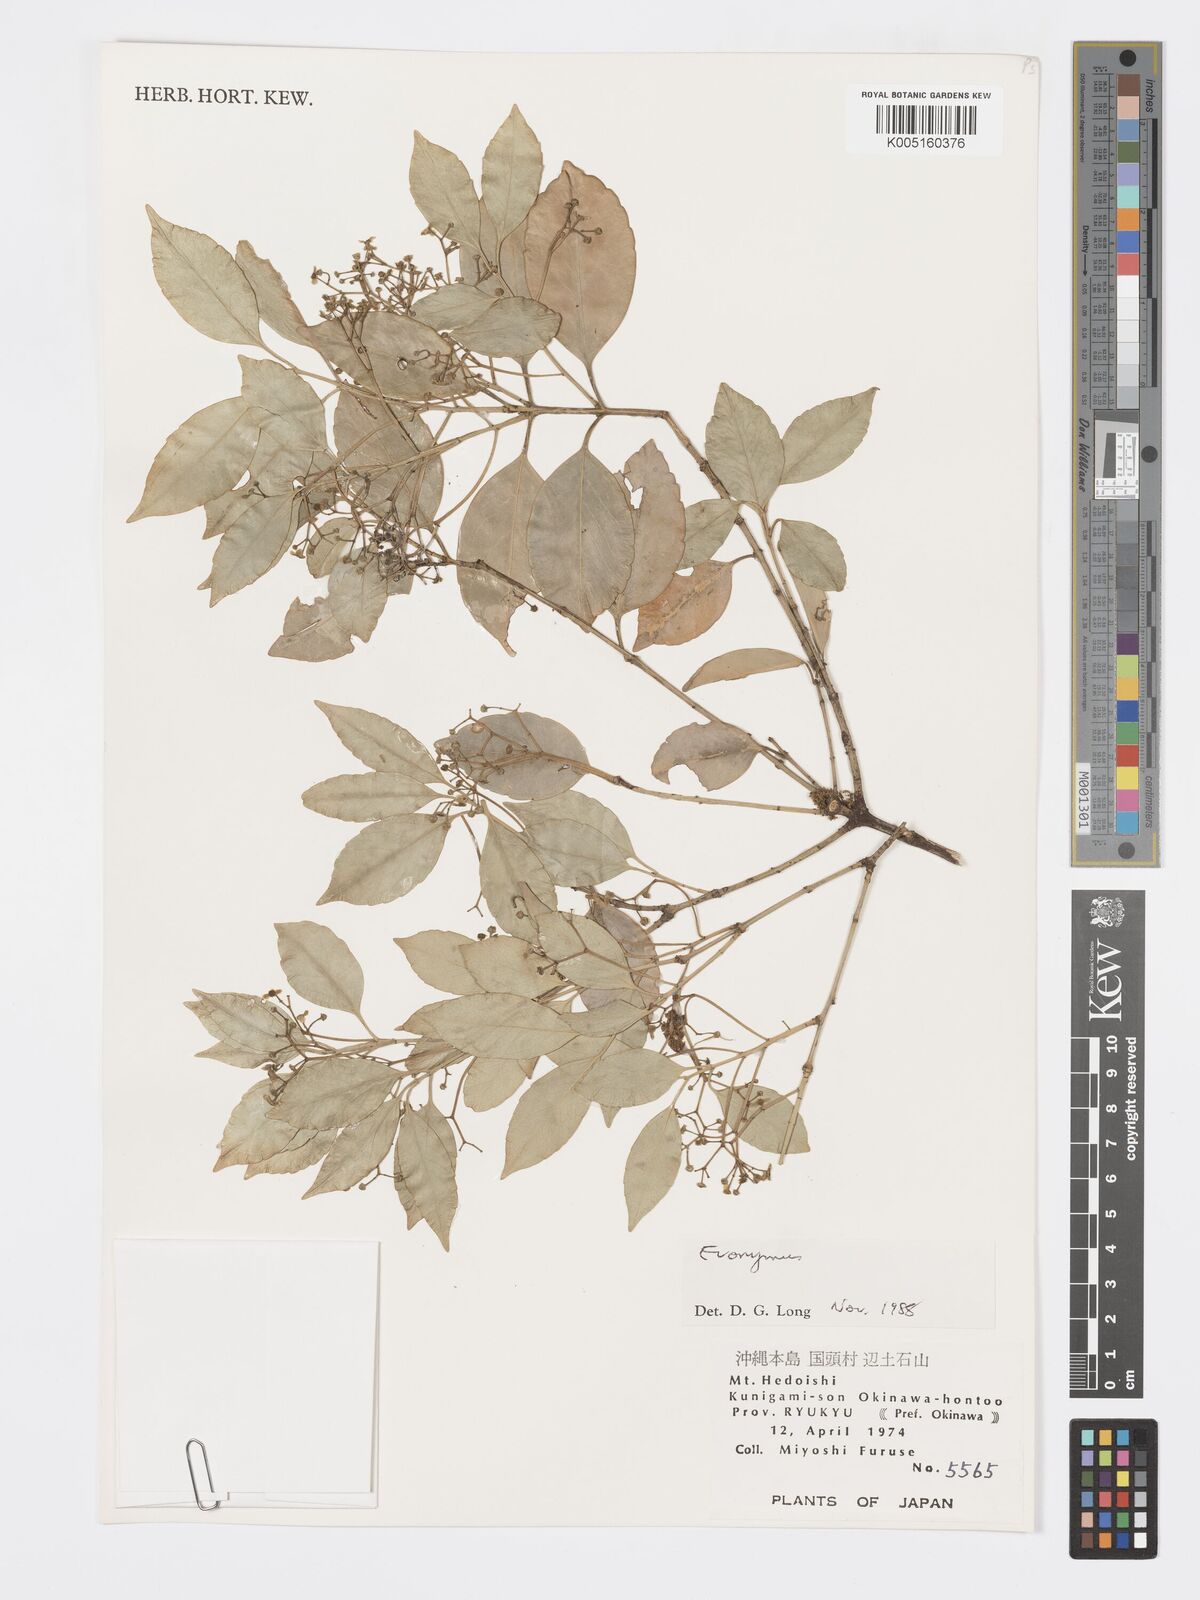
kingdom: Plantae
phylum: Tracheophyta
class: Magnoliopsida
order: Celastrales
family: Celastraceae
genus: Euonymus
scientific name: Euonymus
